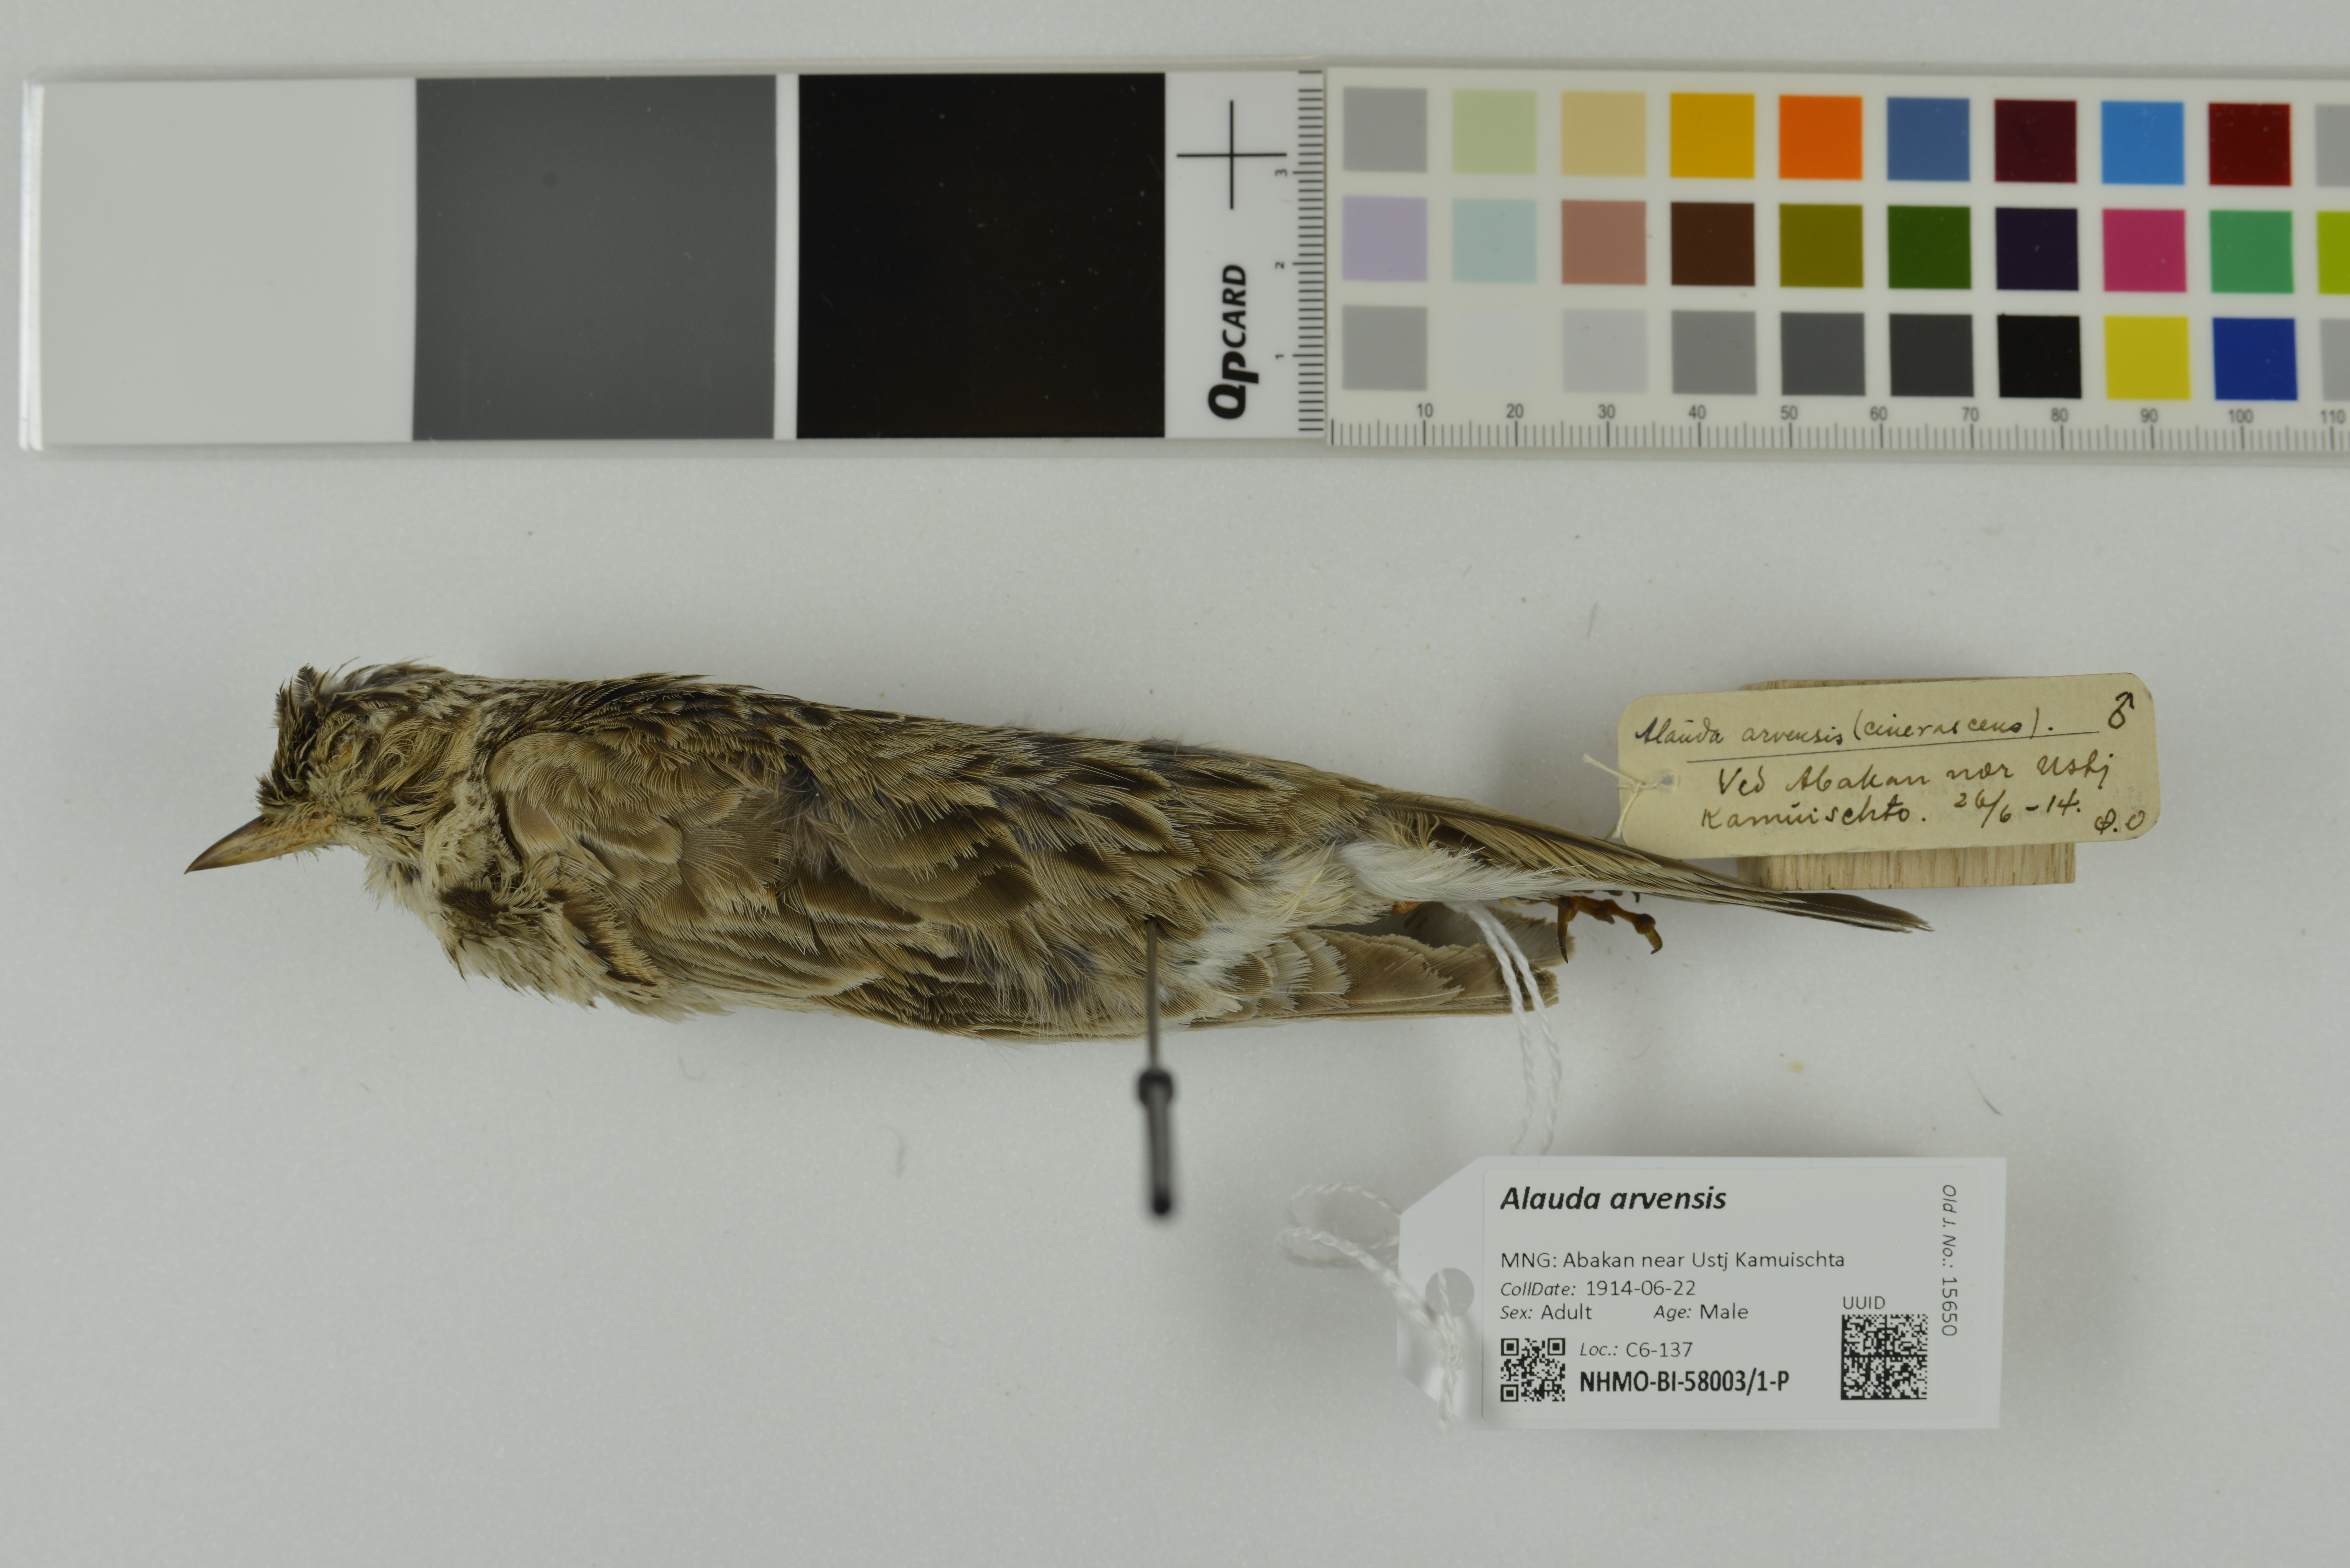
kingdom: Animalia
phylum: Chordata
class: Aves
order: Passeriformes
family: Alaudidae
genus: Alauda
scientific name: Alauda arvensis
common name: Eurasian skylark
